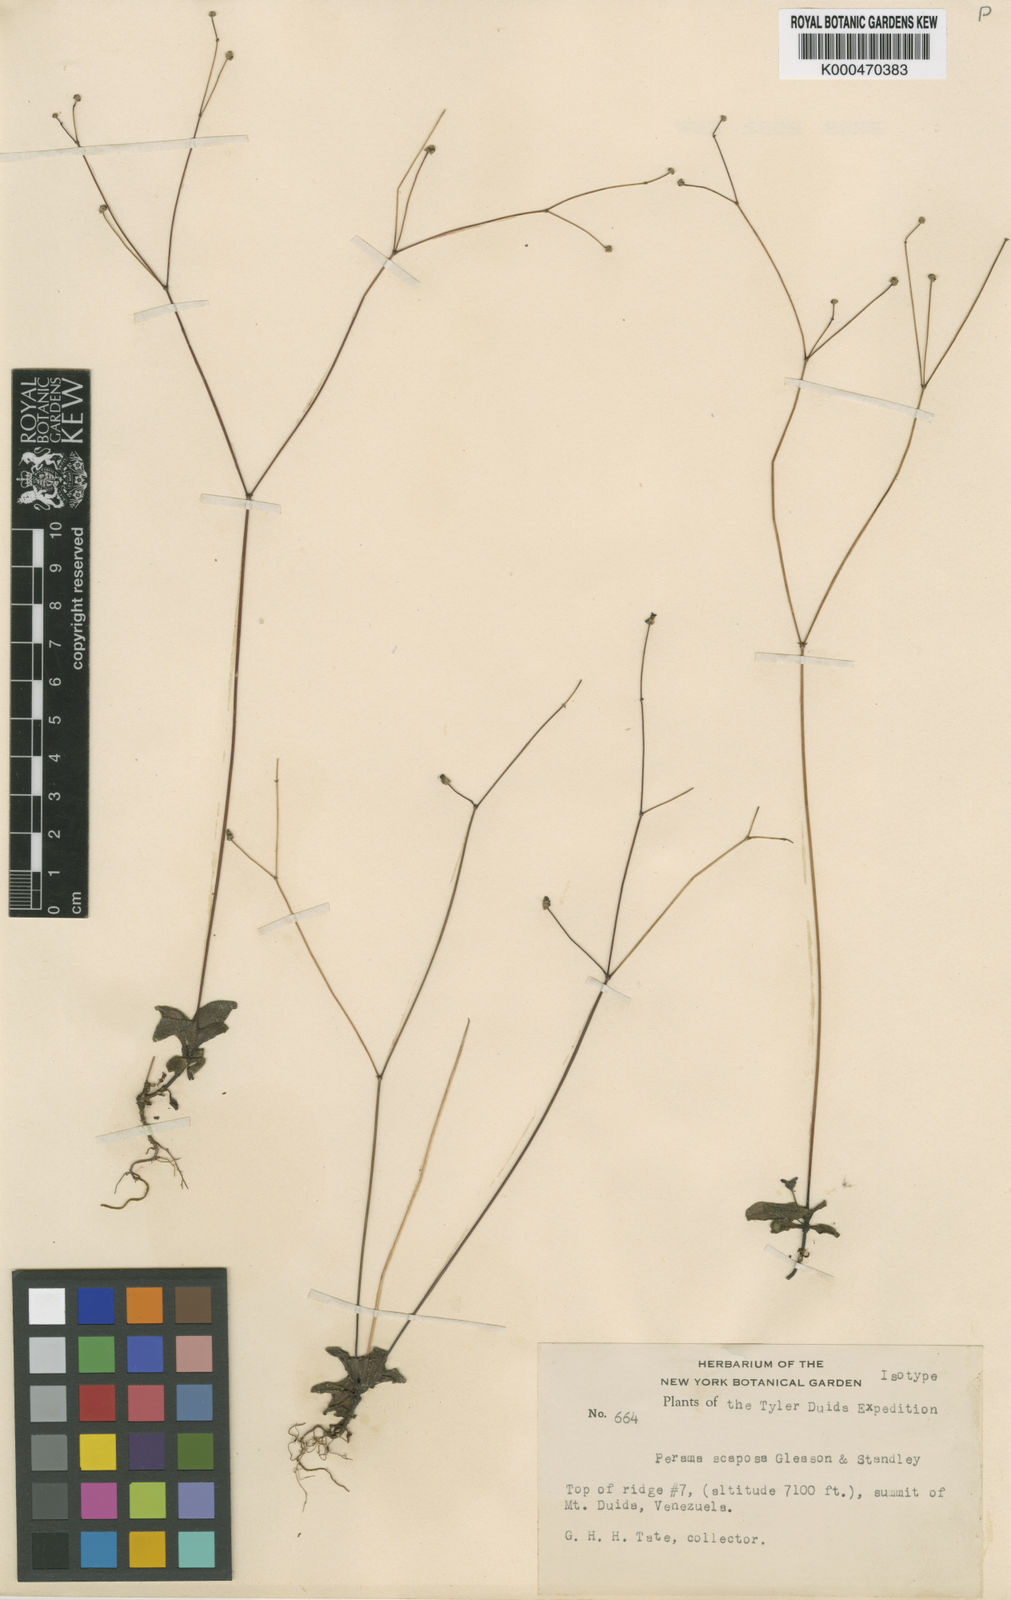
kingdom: Plantae
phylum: Tracheophyta
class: Magnoliopsida
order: Gentianales
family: Rubiaceae
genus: Perama
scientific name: Perama dichotoma
